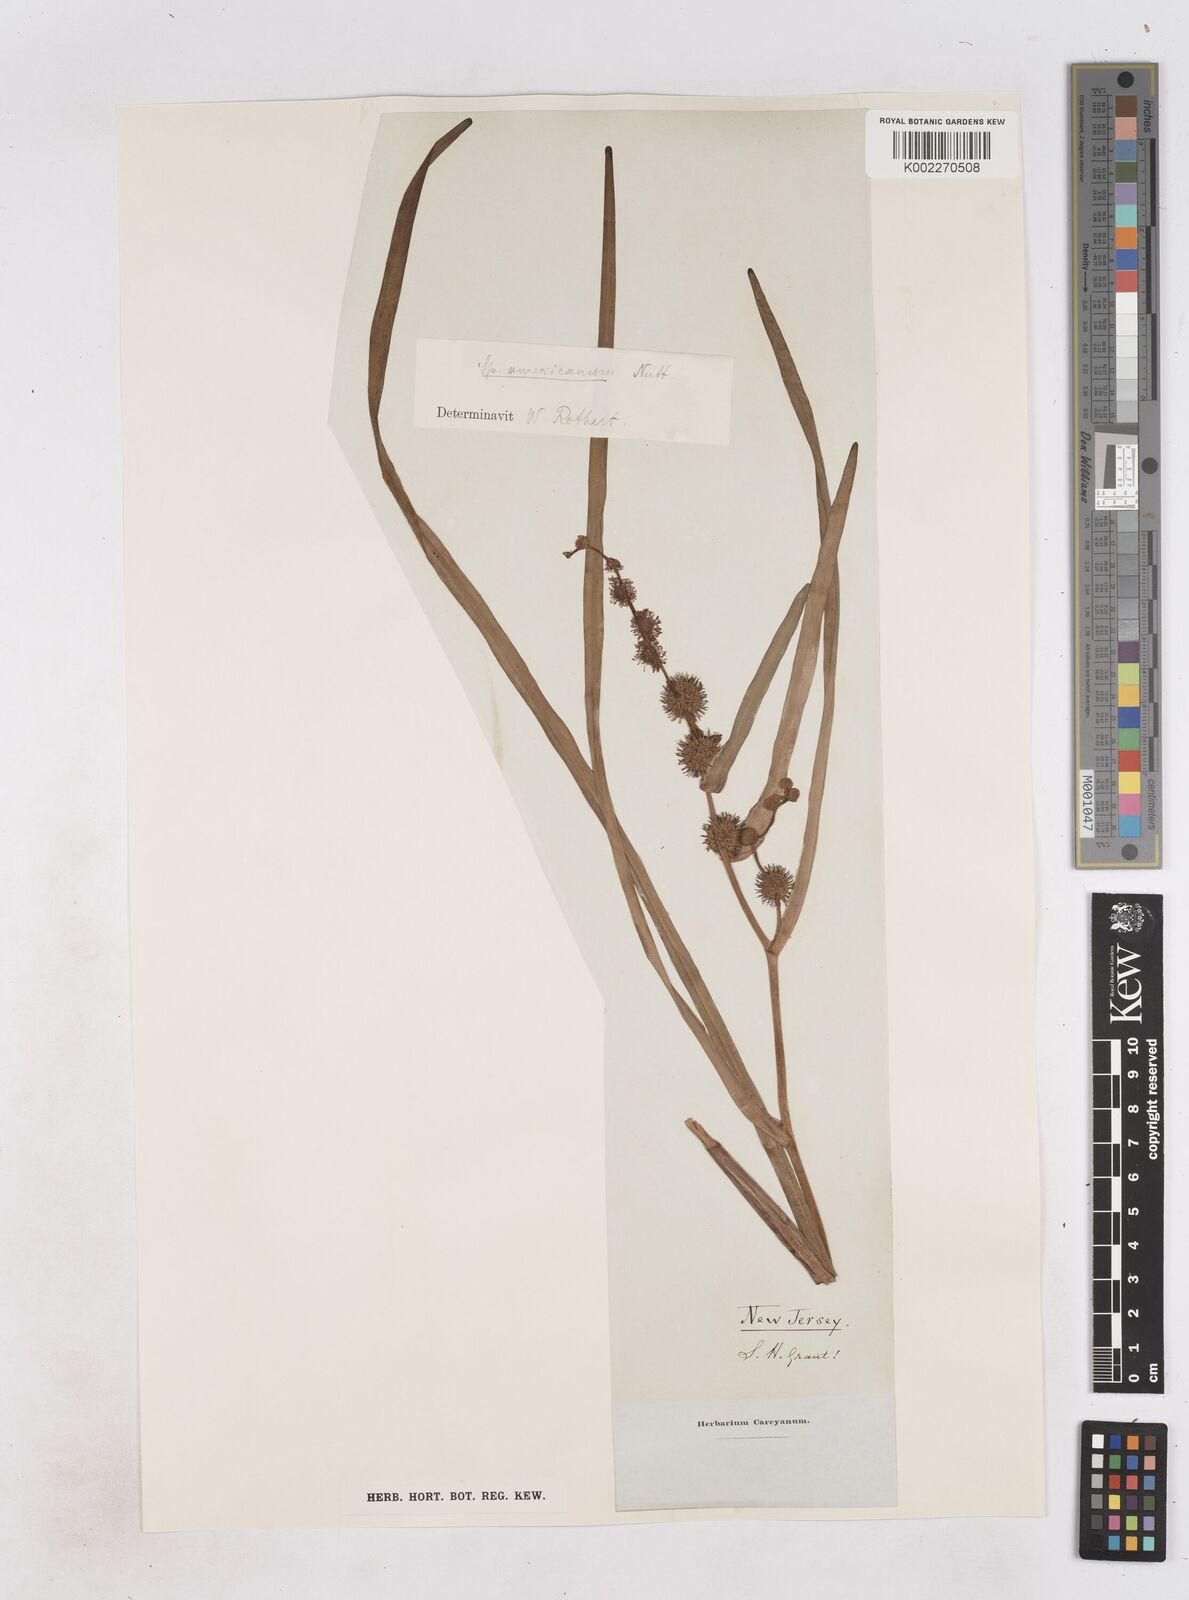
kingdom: Plantae
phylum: Tracheophyta
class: Liliopsida
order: Poales
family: Typhaceae
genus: Sparganium
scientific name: Sparganium americanum
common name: American burreed
